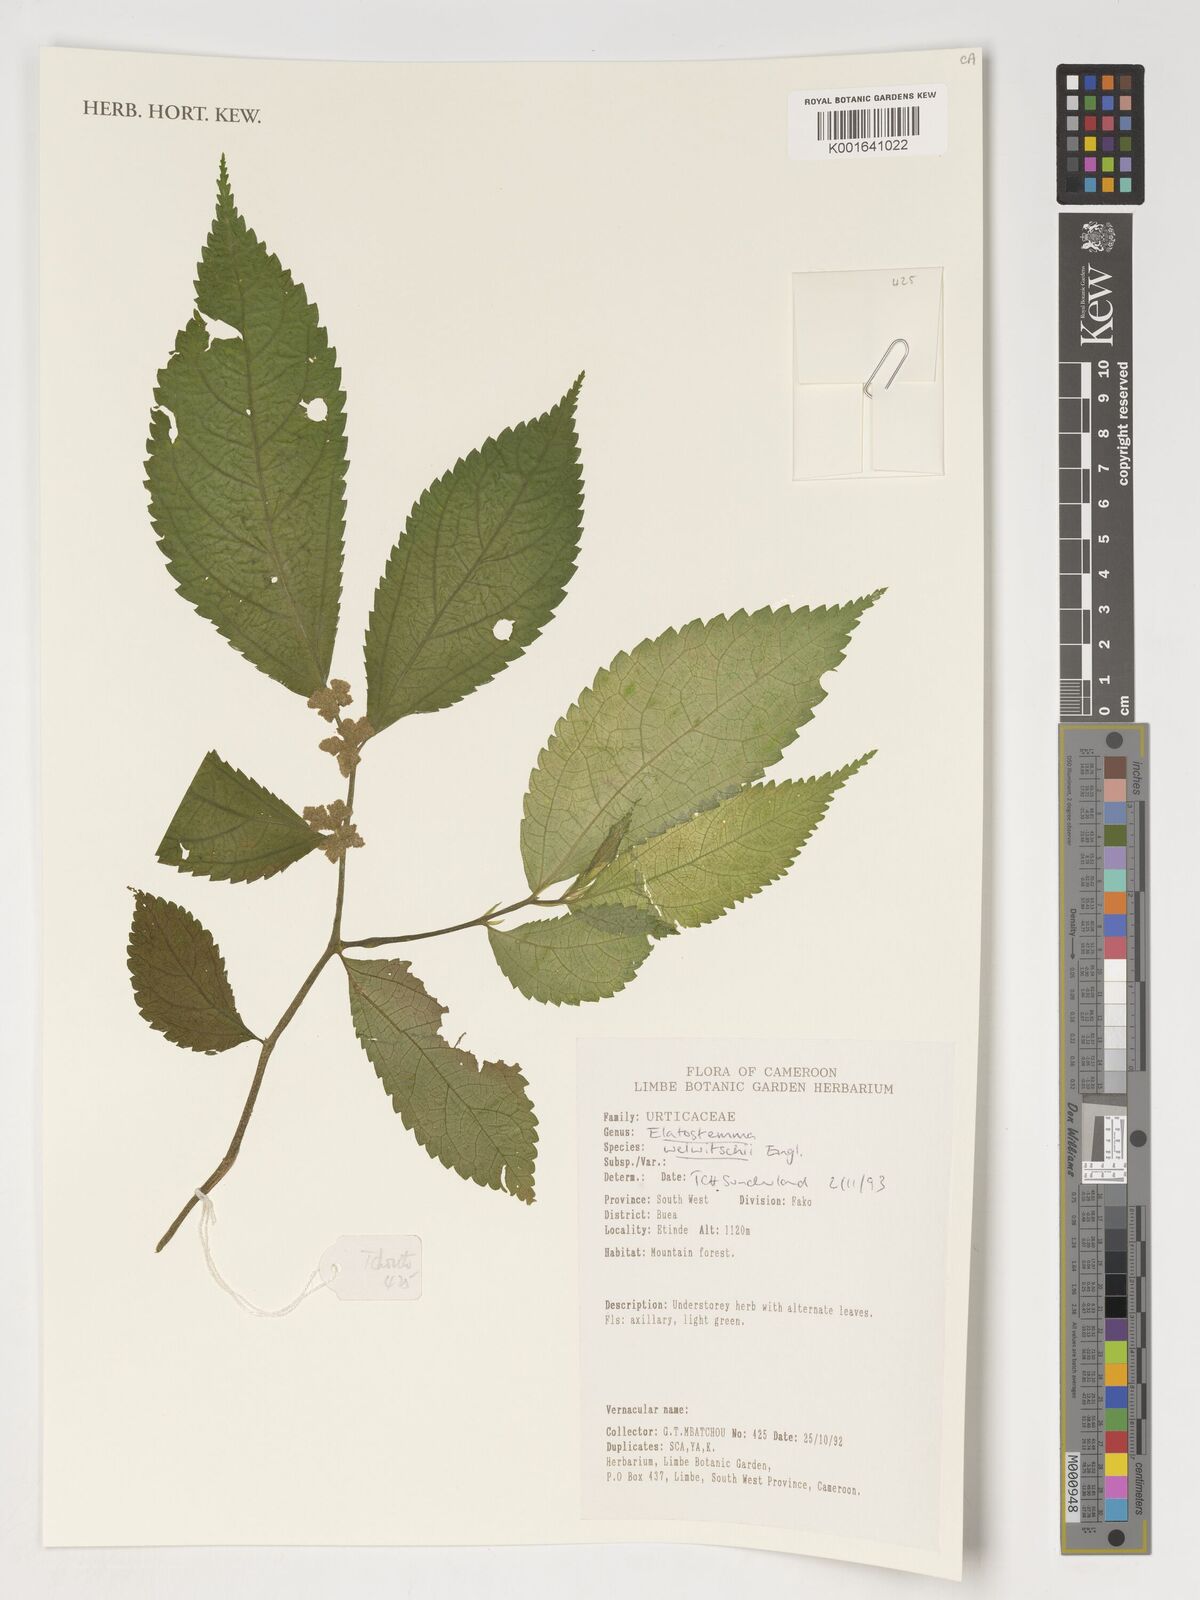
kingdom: Plantae
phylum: Tracheophyta
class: Magnoliopsida
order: Rosales
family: Urticaceae
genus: Elatostema
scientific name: Elatostema welwitschii
